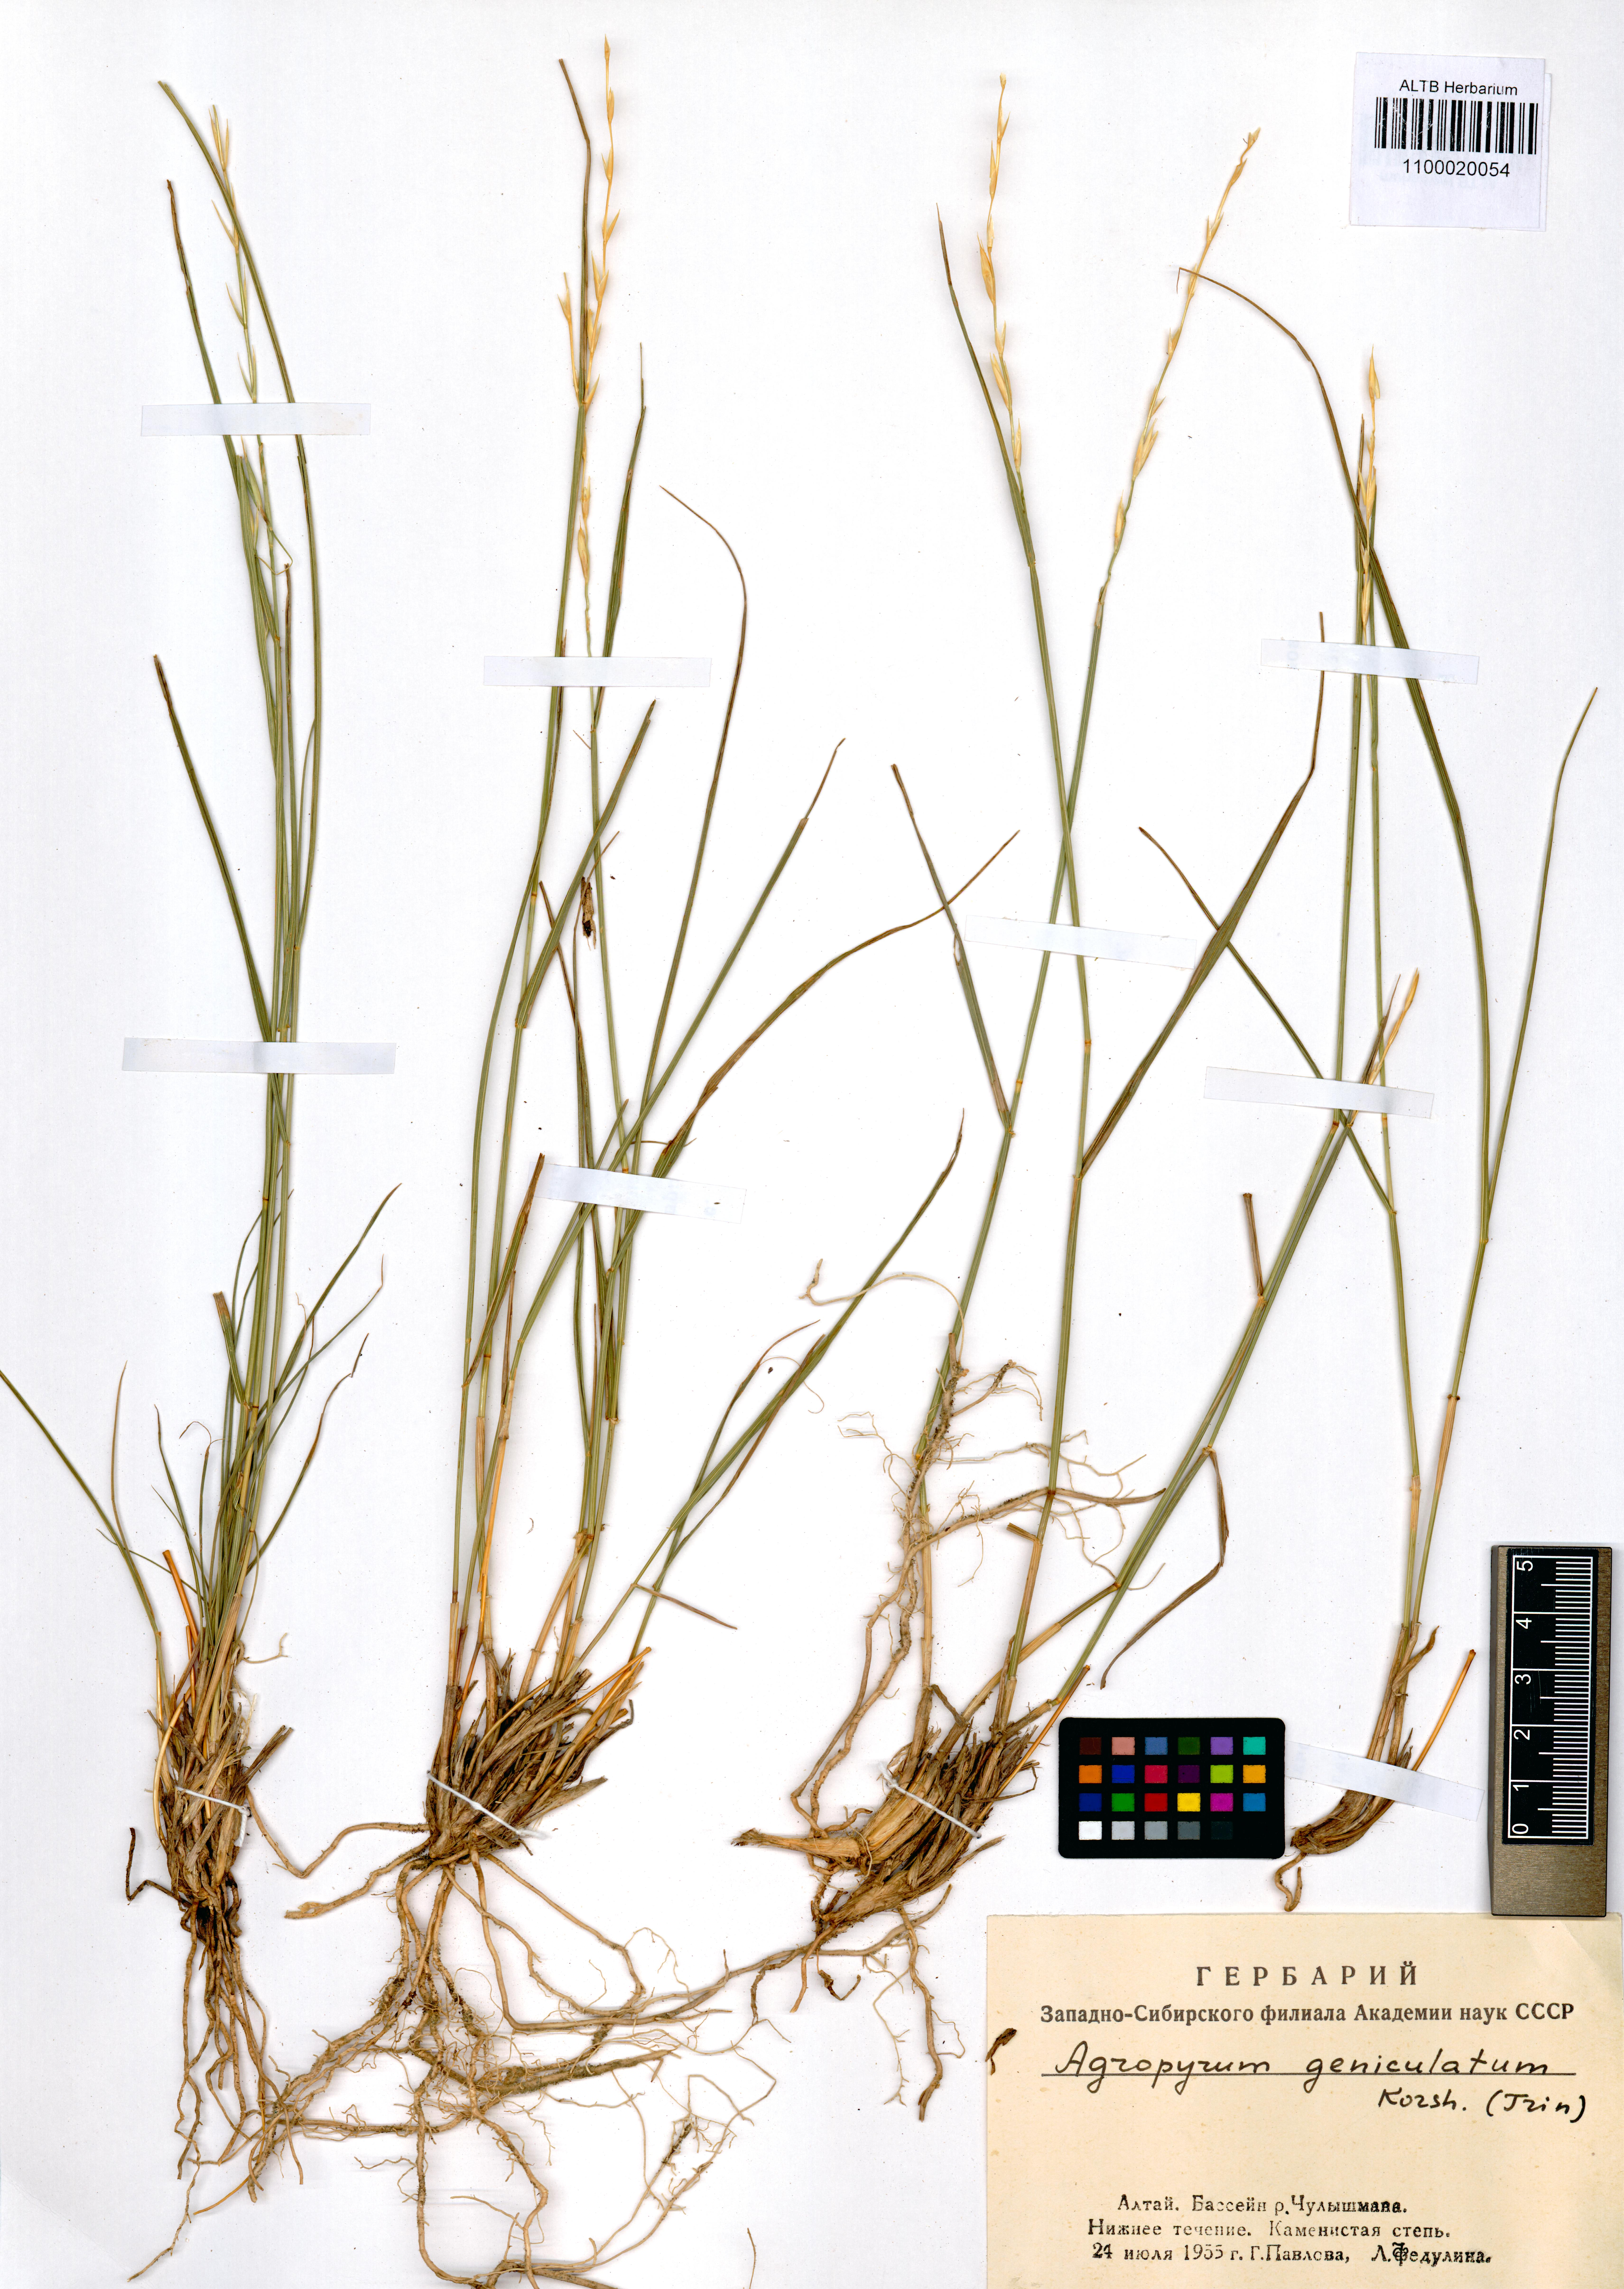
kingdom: Plantae
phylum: Tracheophyta
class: Liliopsida
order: Poales
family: Poaceae
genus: Pseudoroegneria
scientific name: Pseudoroegneria reflexiaristata
